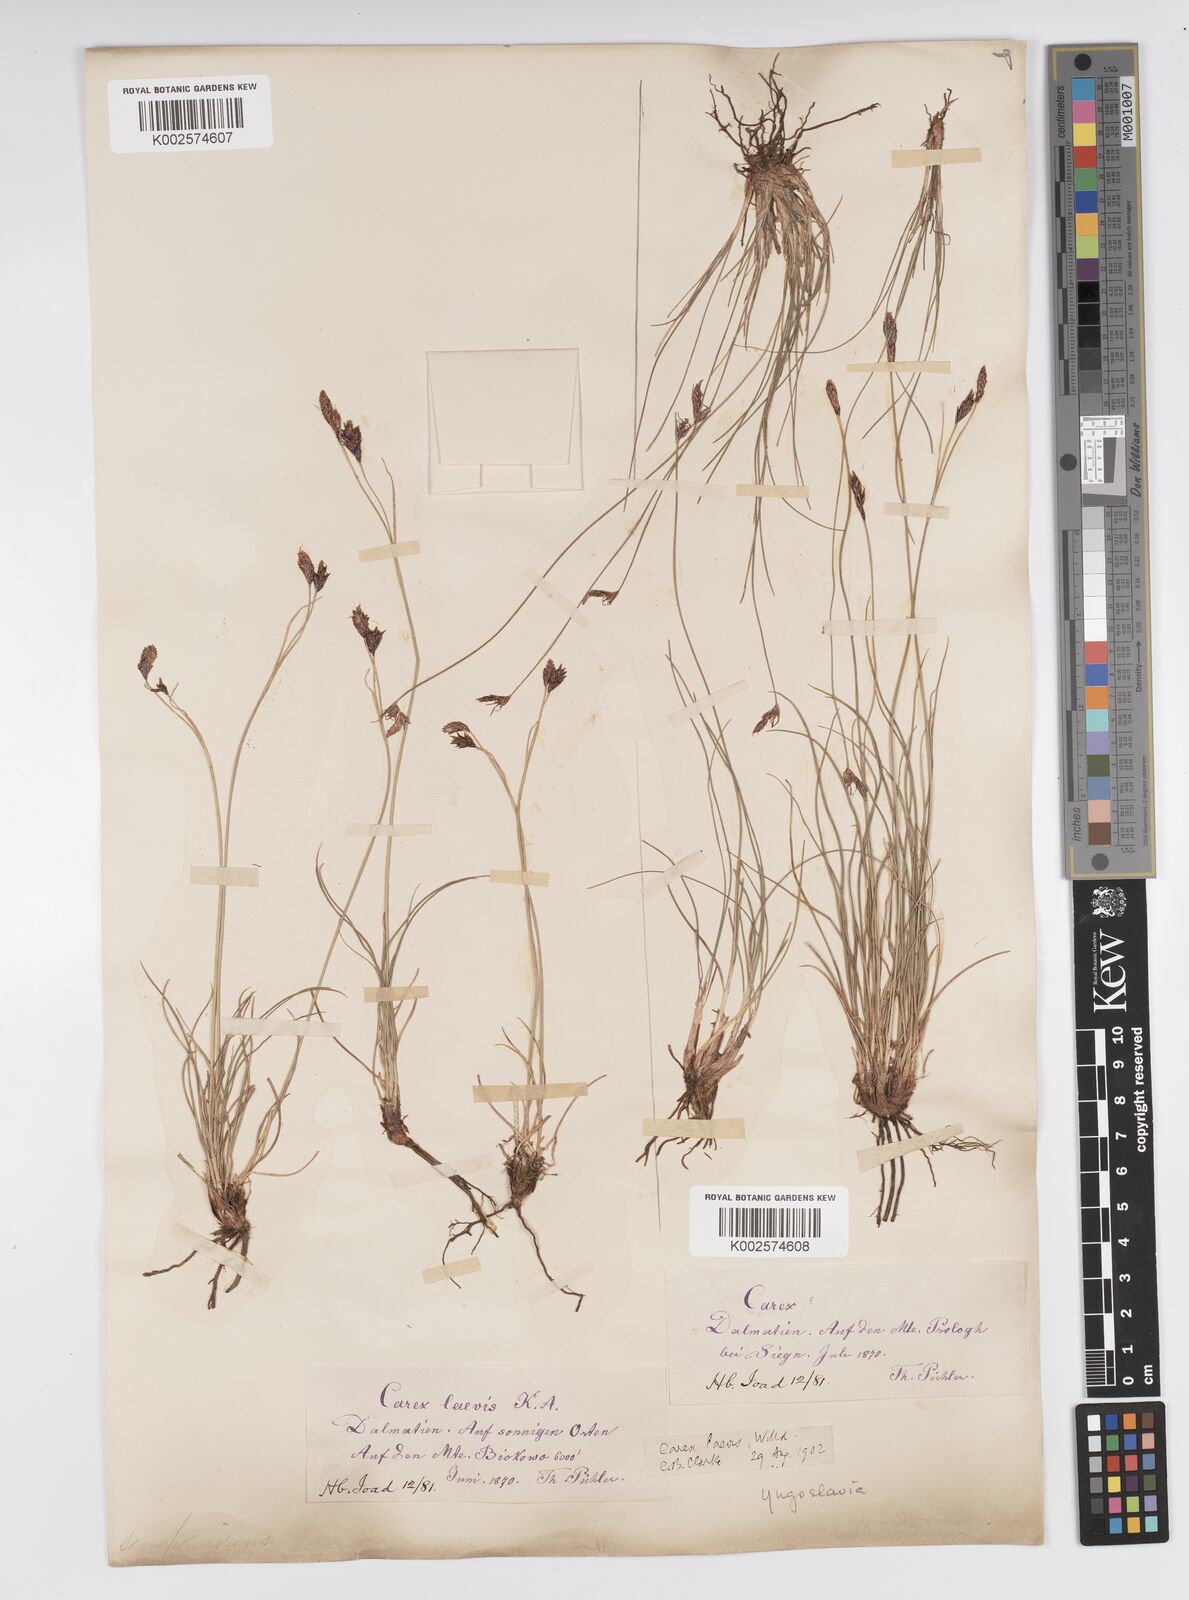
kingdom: Plantae
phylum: Tracheophyta
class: Liliopsida
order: Poales
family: Cyperaceae
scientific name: Cyperaceae
